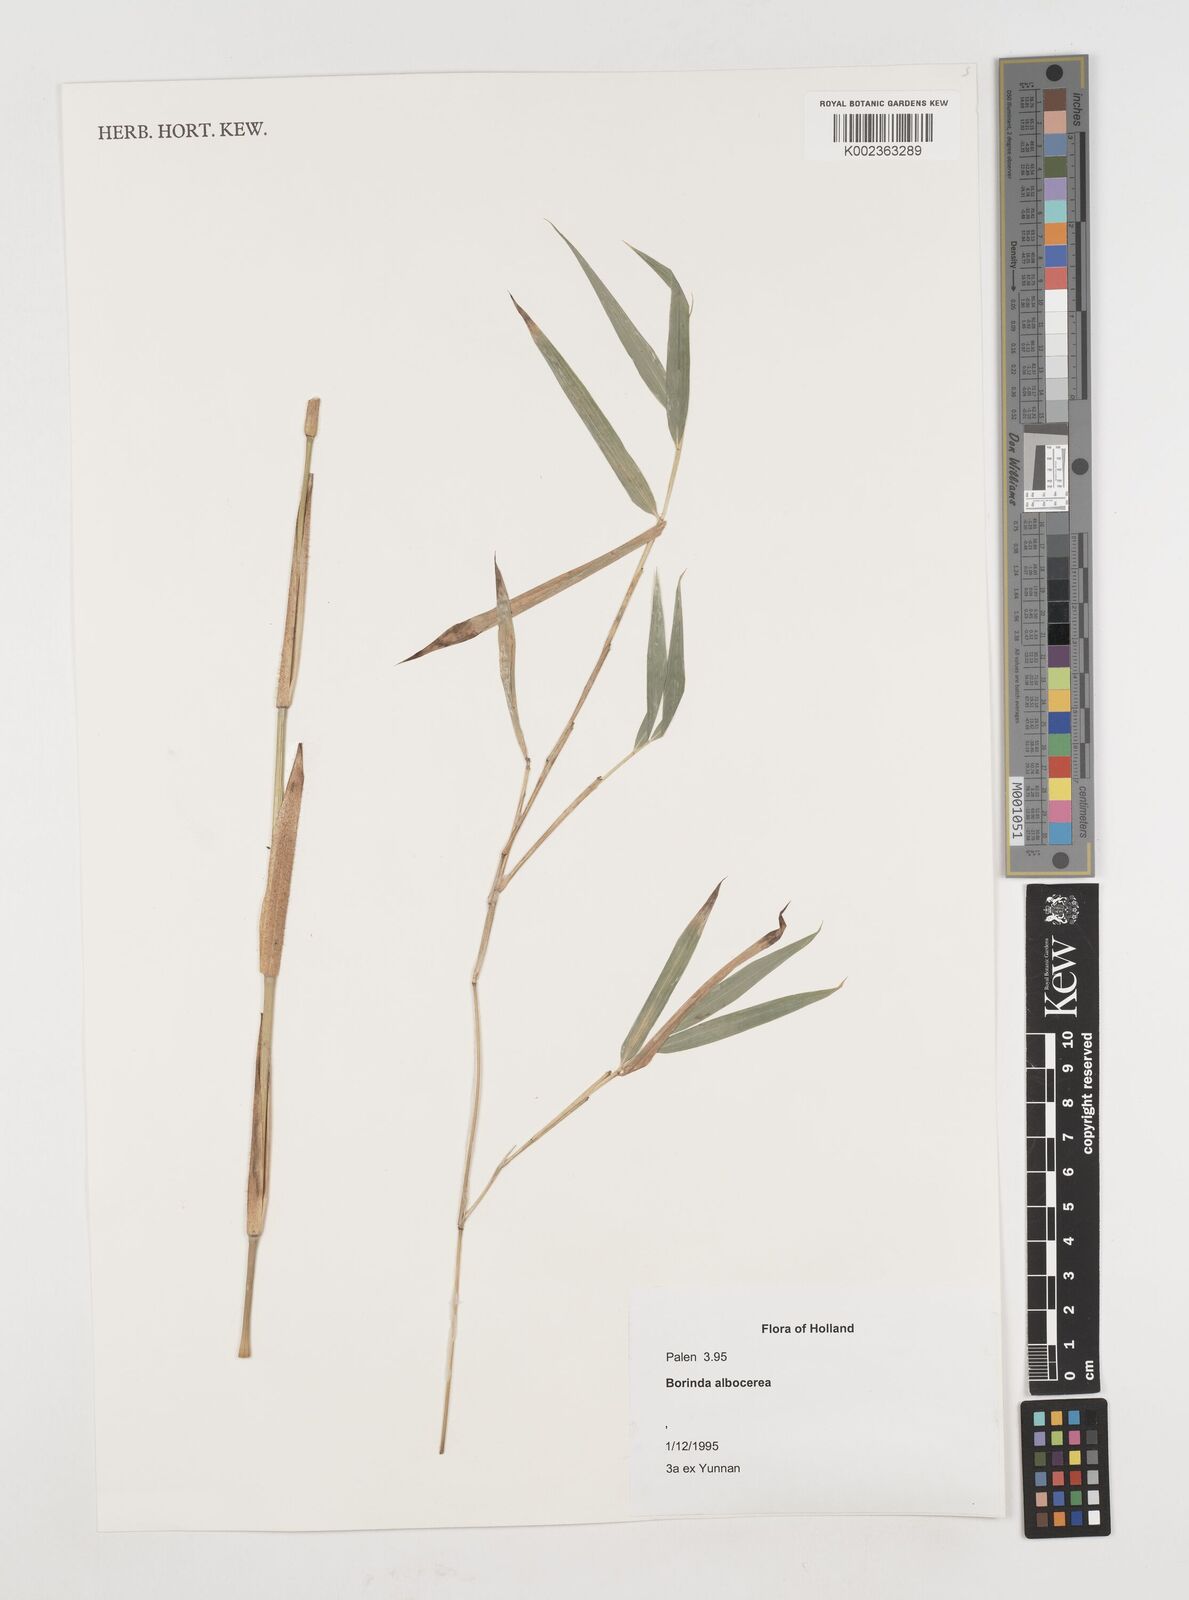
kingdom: Plantae
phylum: Tracheophyta
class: Liliopsida
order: Poales
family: Poaceae
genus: Borinda
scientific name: Borinda albocerea
